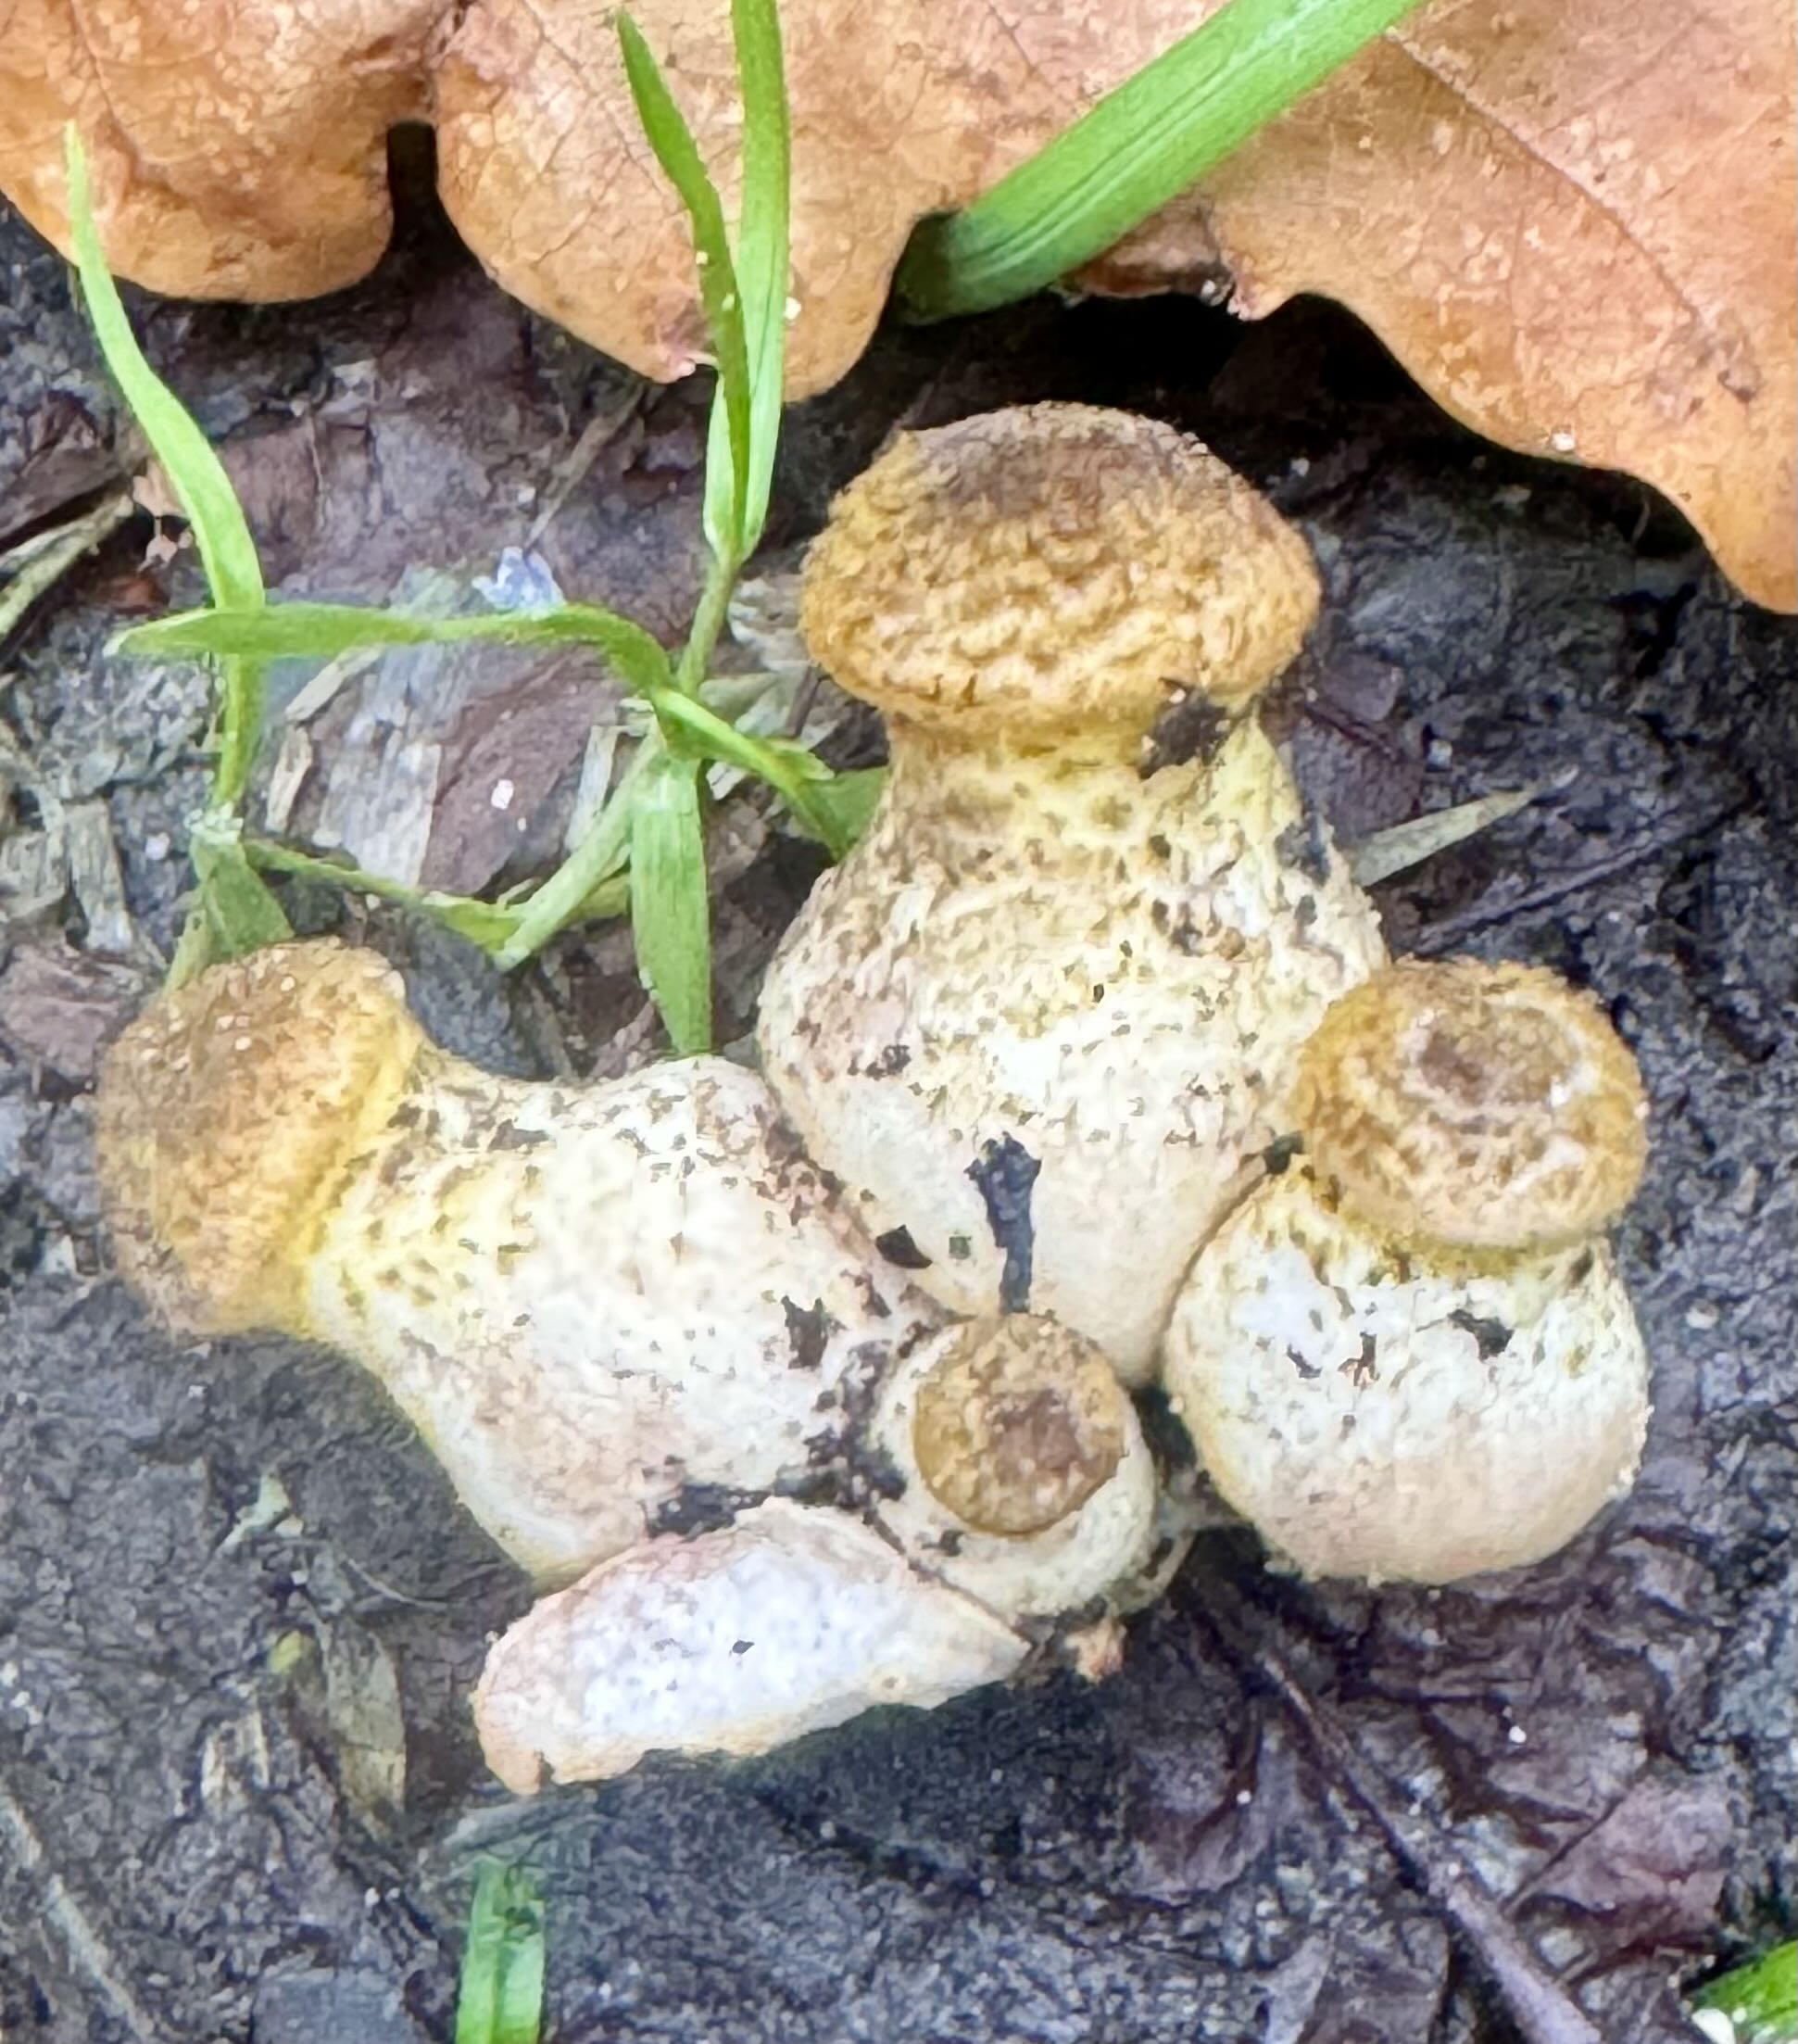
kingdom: Fungi
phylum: Basidiomycota
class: Agaricomycetes
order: Agaricales
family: Physalacriaceae
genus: Armillaria
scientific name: Armillaria lutea
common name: køllestokket honningsvamp
